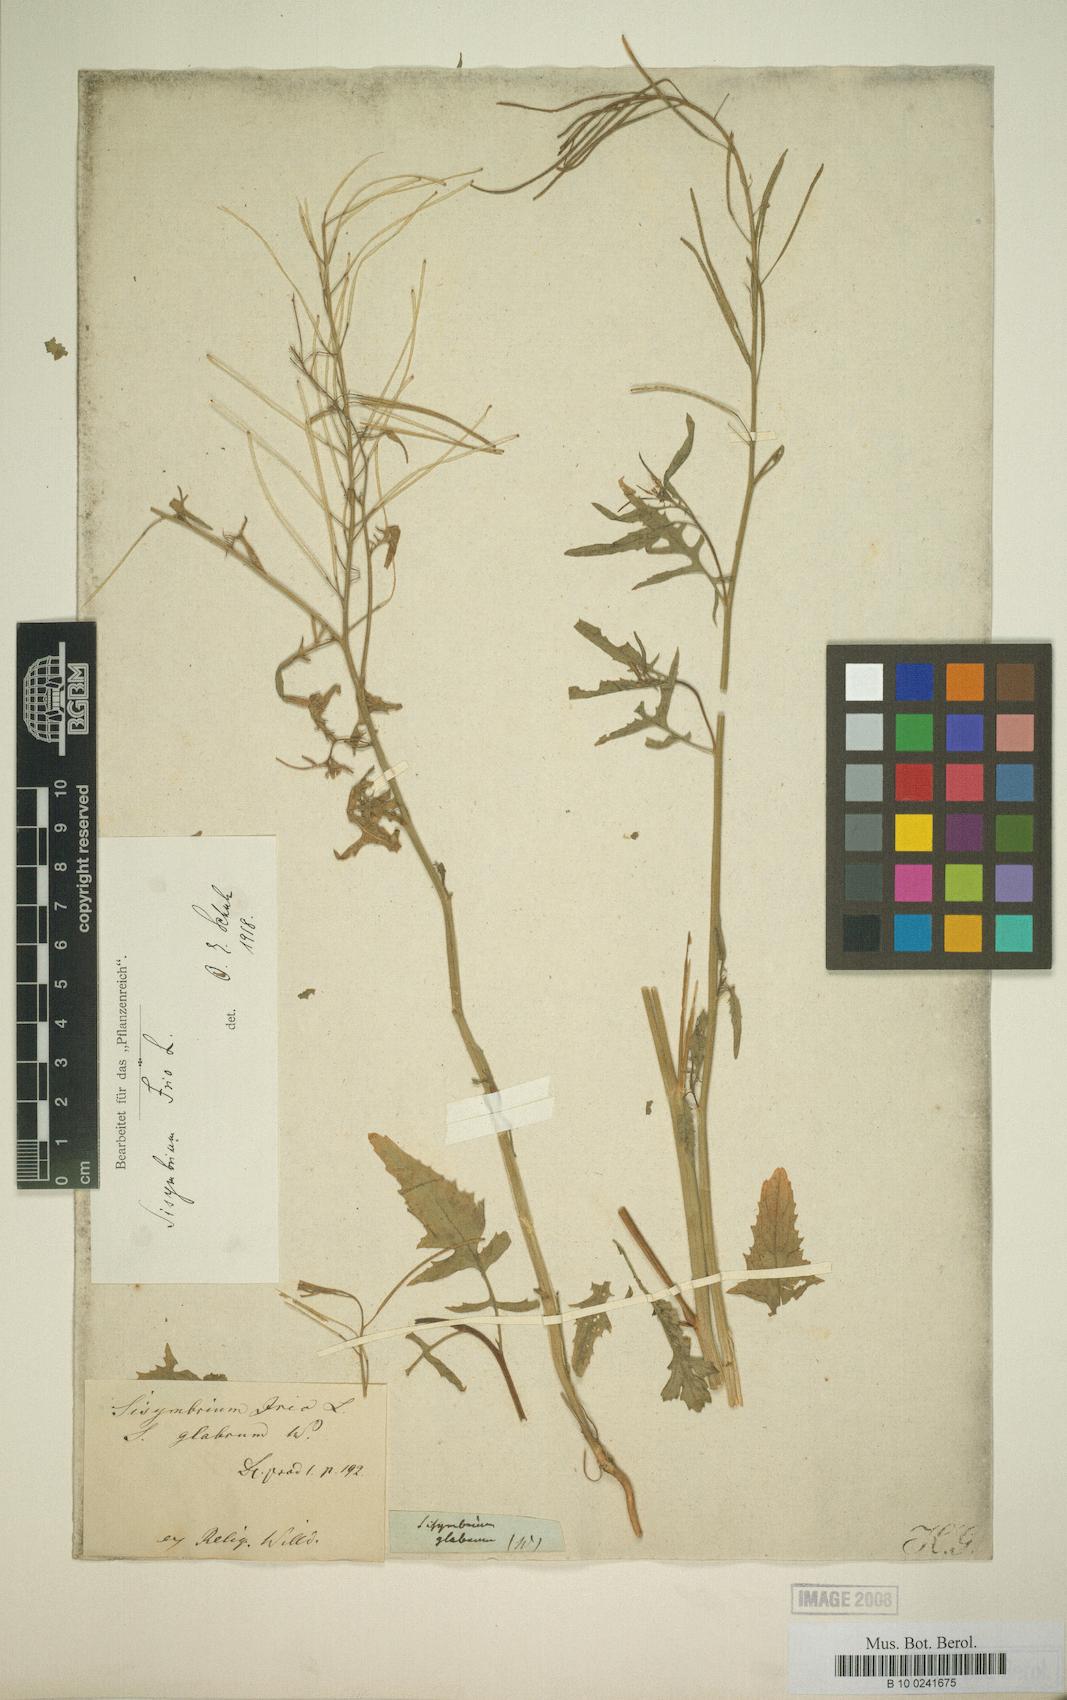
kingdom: Plantae
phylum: Tracheophyta
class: Magnoliopsida
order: Brassicales
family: Brassicaceae
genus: Sisymbrium
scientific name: Sisymbrium irio
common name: London rocket
